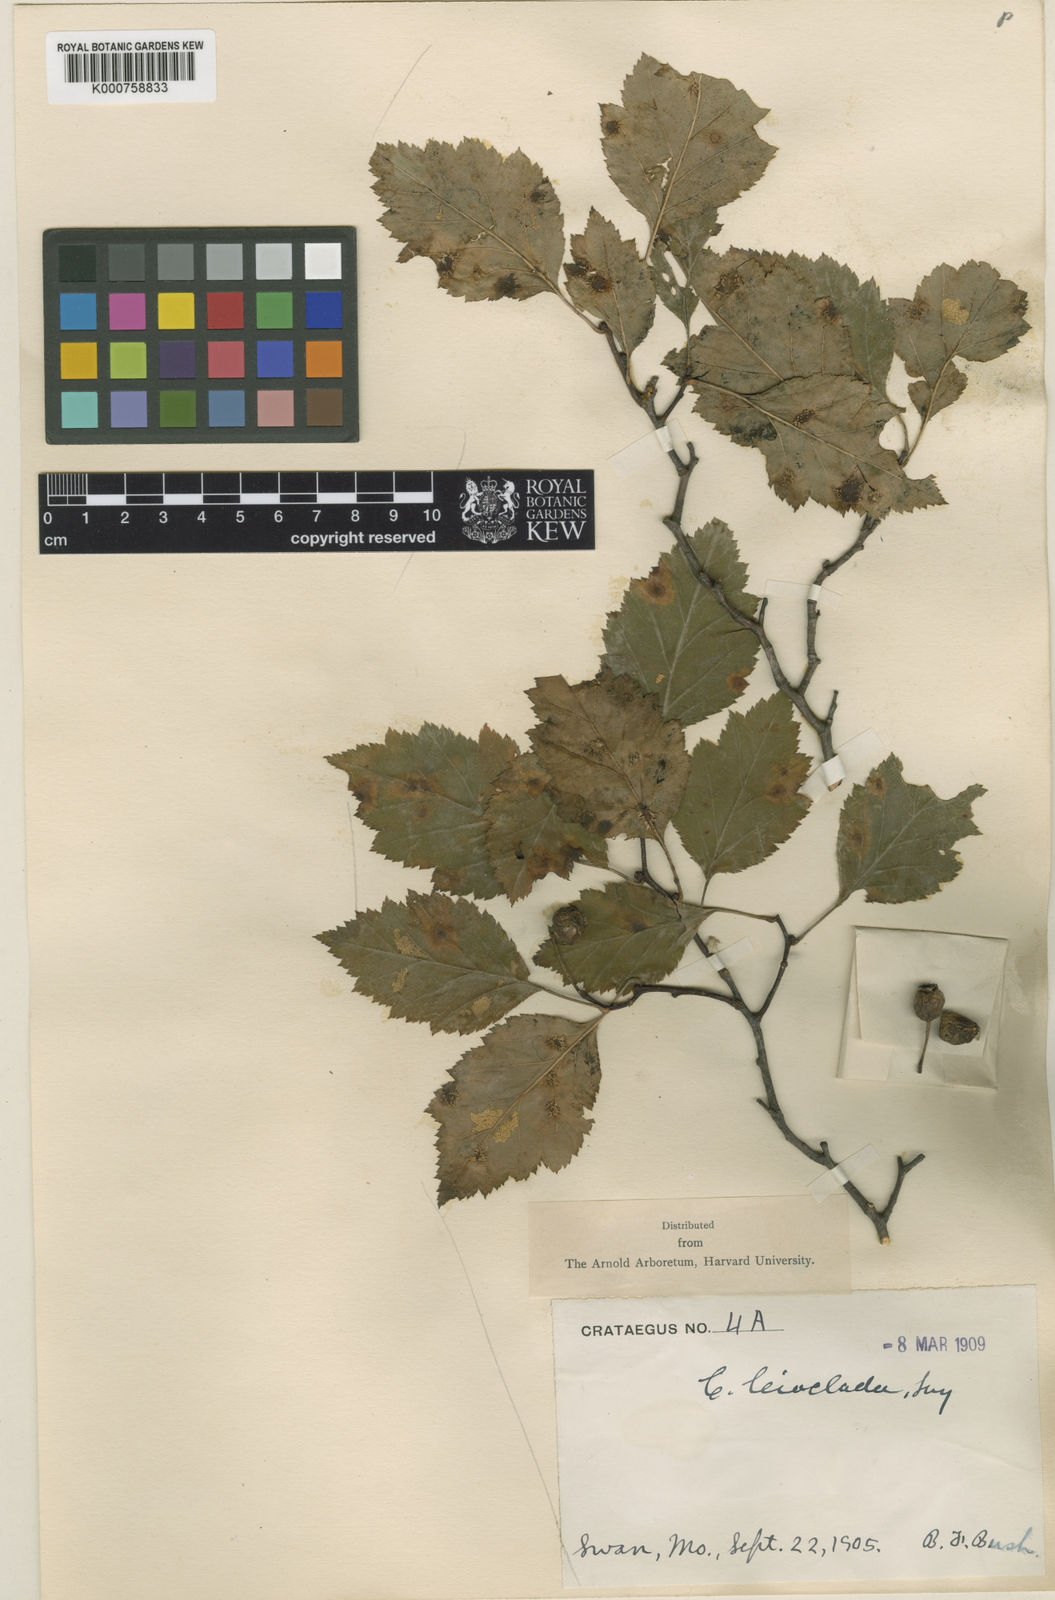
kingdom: Plantae
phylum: Tracheophyta
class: Magnoliopsida
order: Rosales
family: Rosaceae
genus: Crataegus
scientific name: Crataegus leioclada
